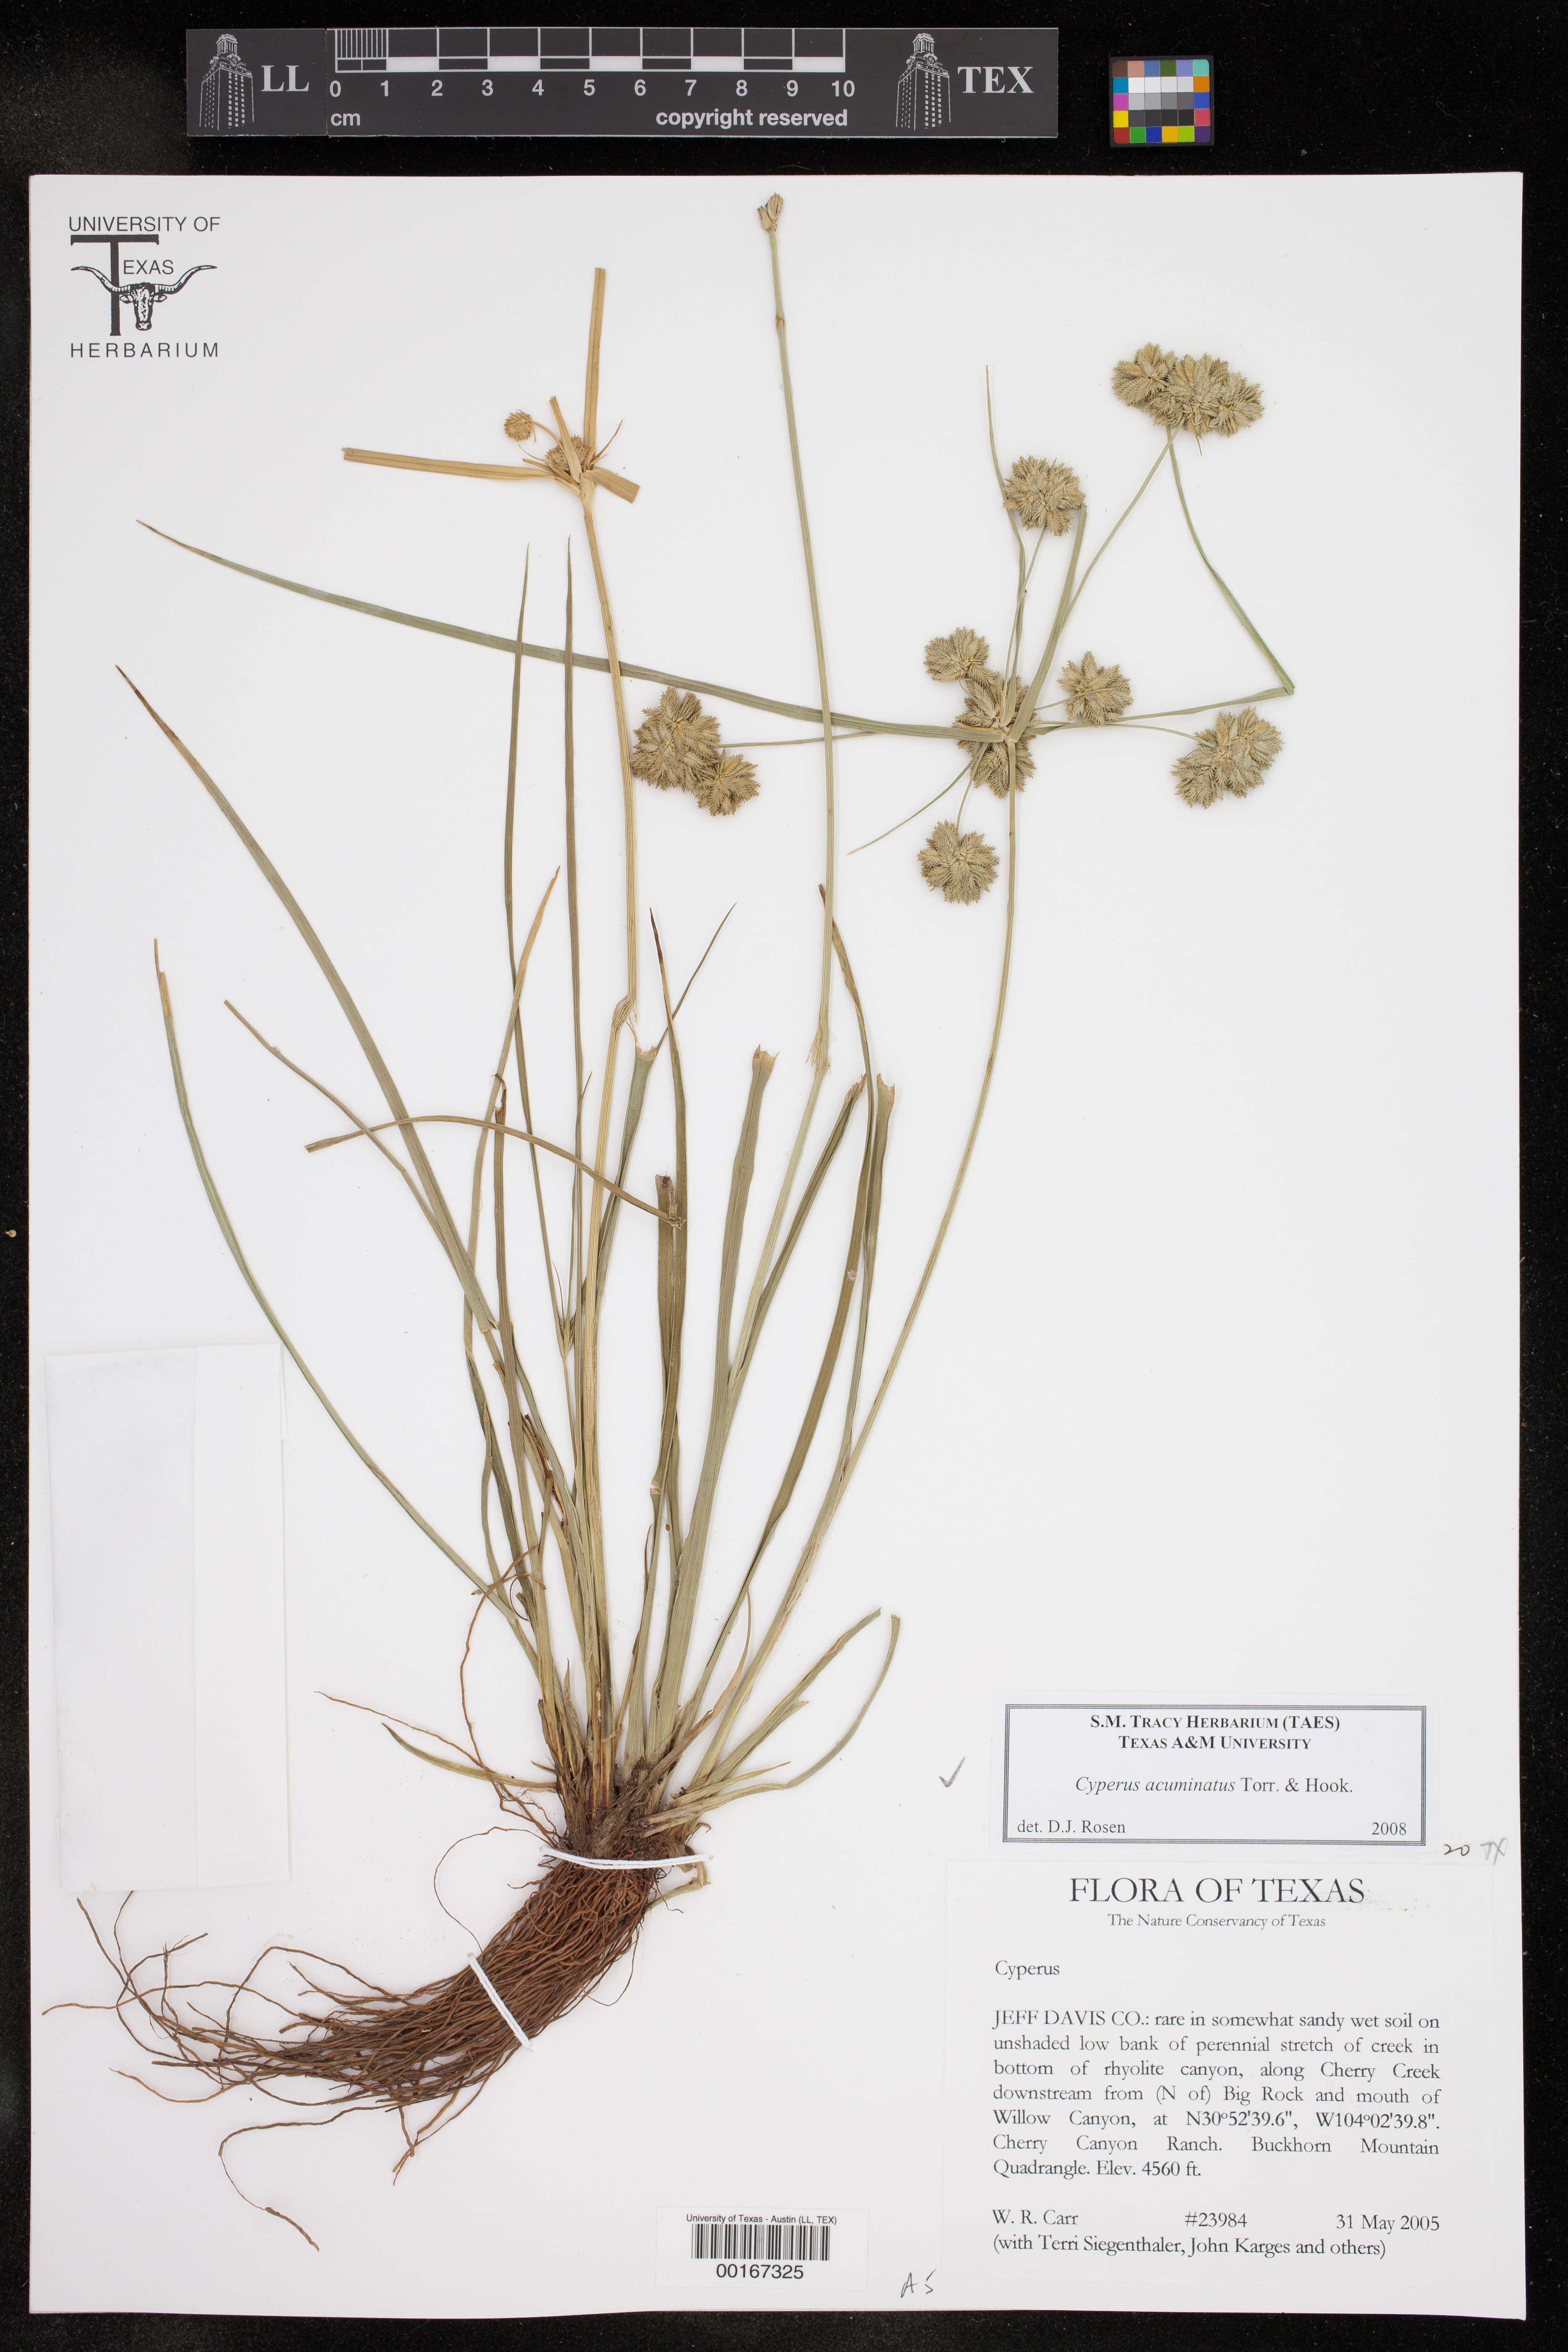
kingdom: Plantae
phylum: Tracheophyta
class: Liliopsida
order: Poales
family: Cyperaceae
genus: Cyperus
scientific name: Cyperus acuminatus
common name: Short-pointed cyperus
